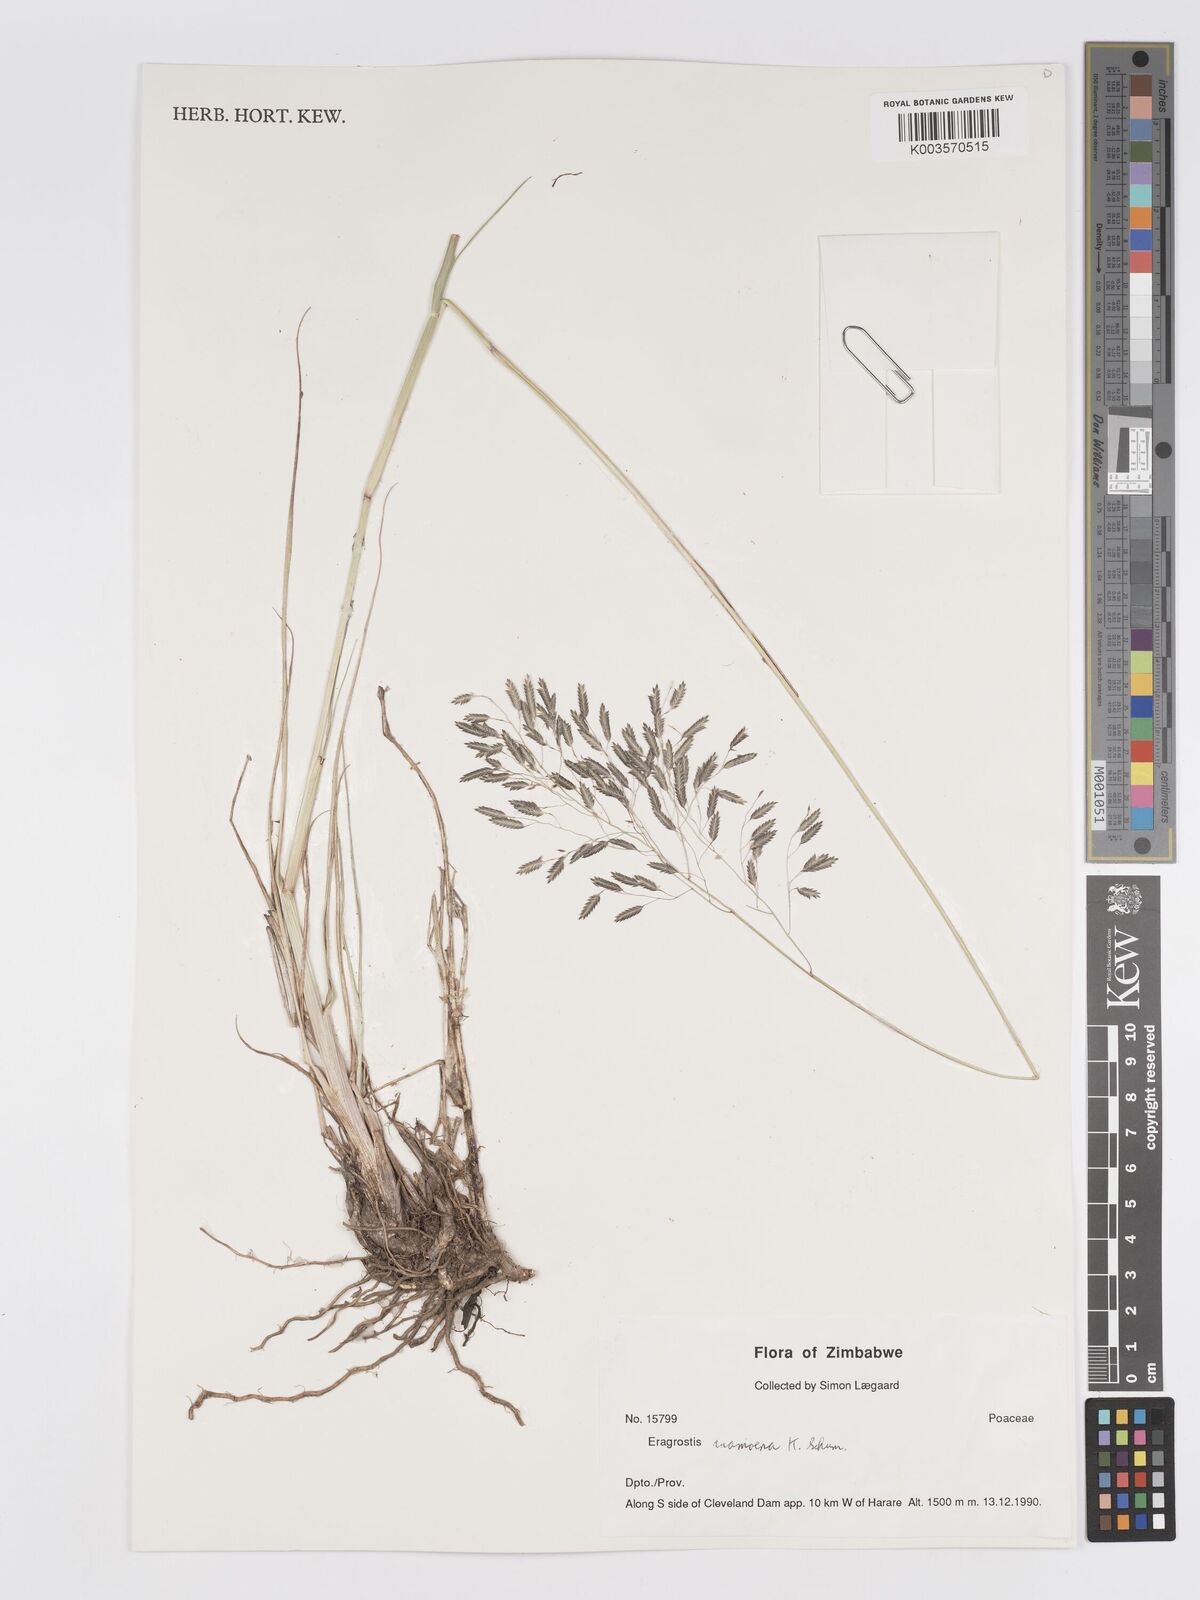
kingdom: Plantae
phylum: Tracheophyta
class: Liliopsida
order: Poales
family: Poaceae
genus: Eragrostis
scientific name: Eragrostis inamoena
